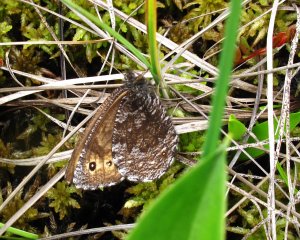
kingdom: Animalia
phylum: Arthropoda
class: Insecta
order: Lepidoptera
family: Nymphalidae
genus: Oeneis
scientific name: Oeneis jutta
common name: Jutta Arctic
